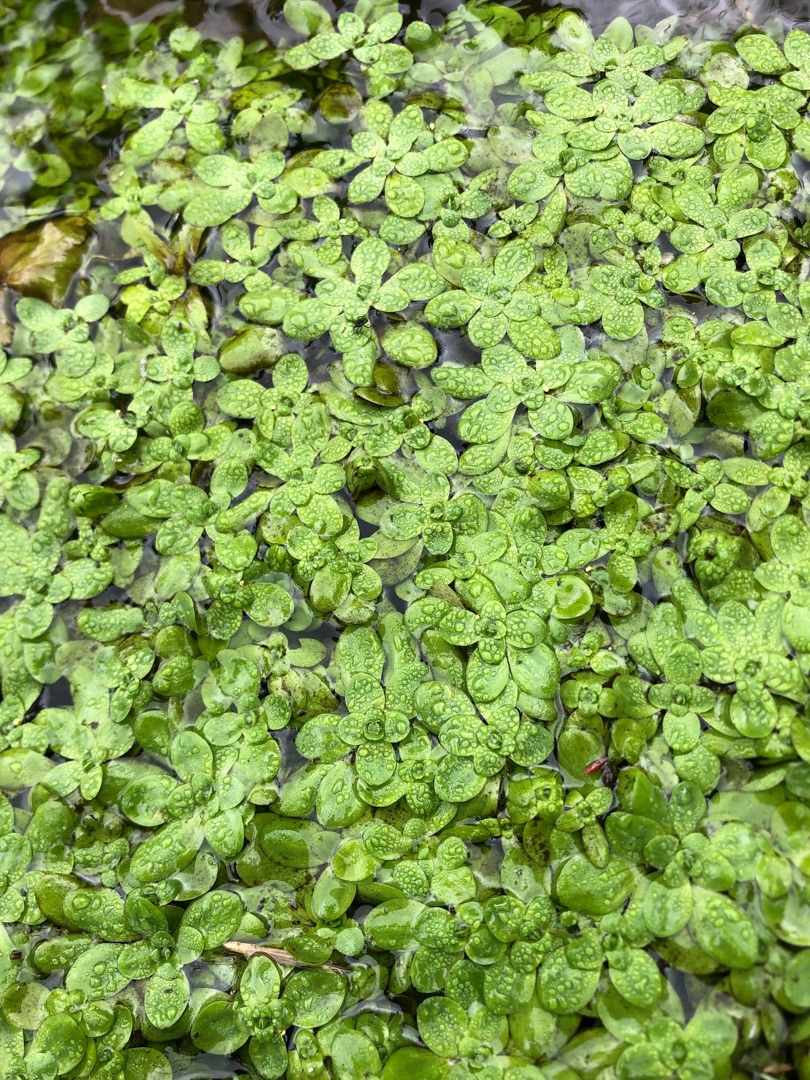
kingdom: Plantae
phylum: Tracheophyta
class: Magnoliopsida
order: Lamiales
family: Plantaginaceae
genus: Callitriche
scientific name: Callitriche stagnalis
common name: Storfrugtet vandstjerne
